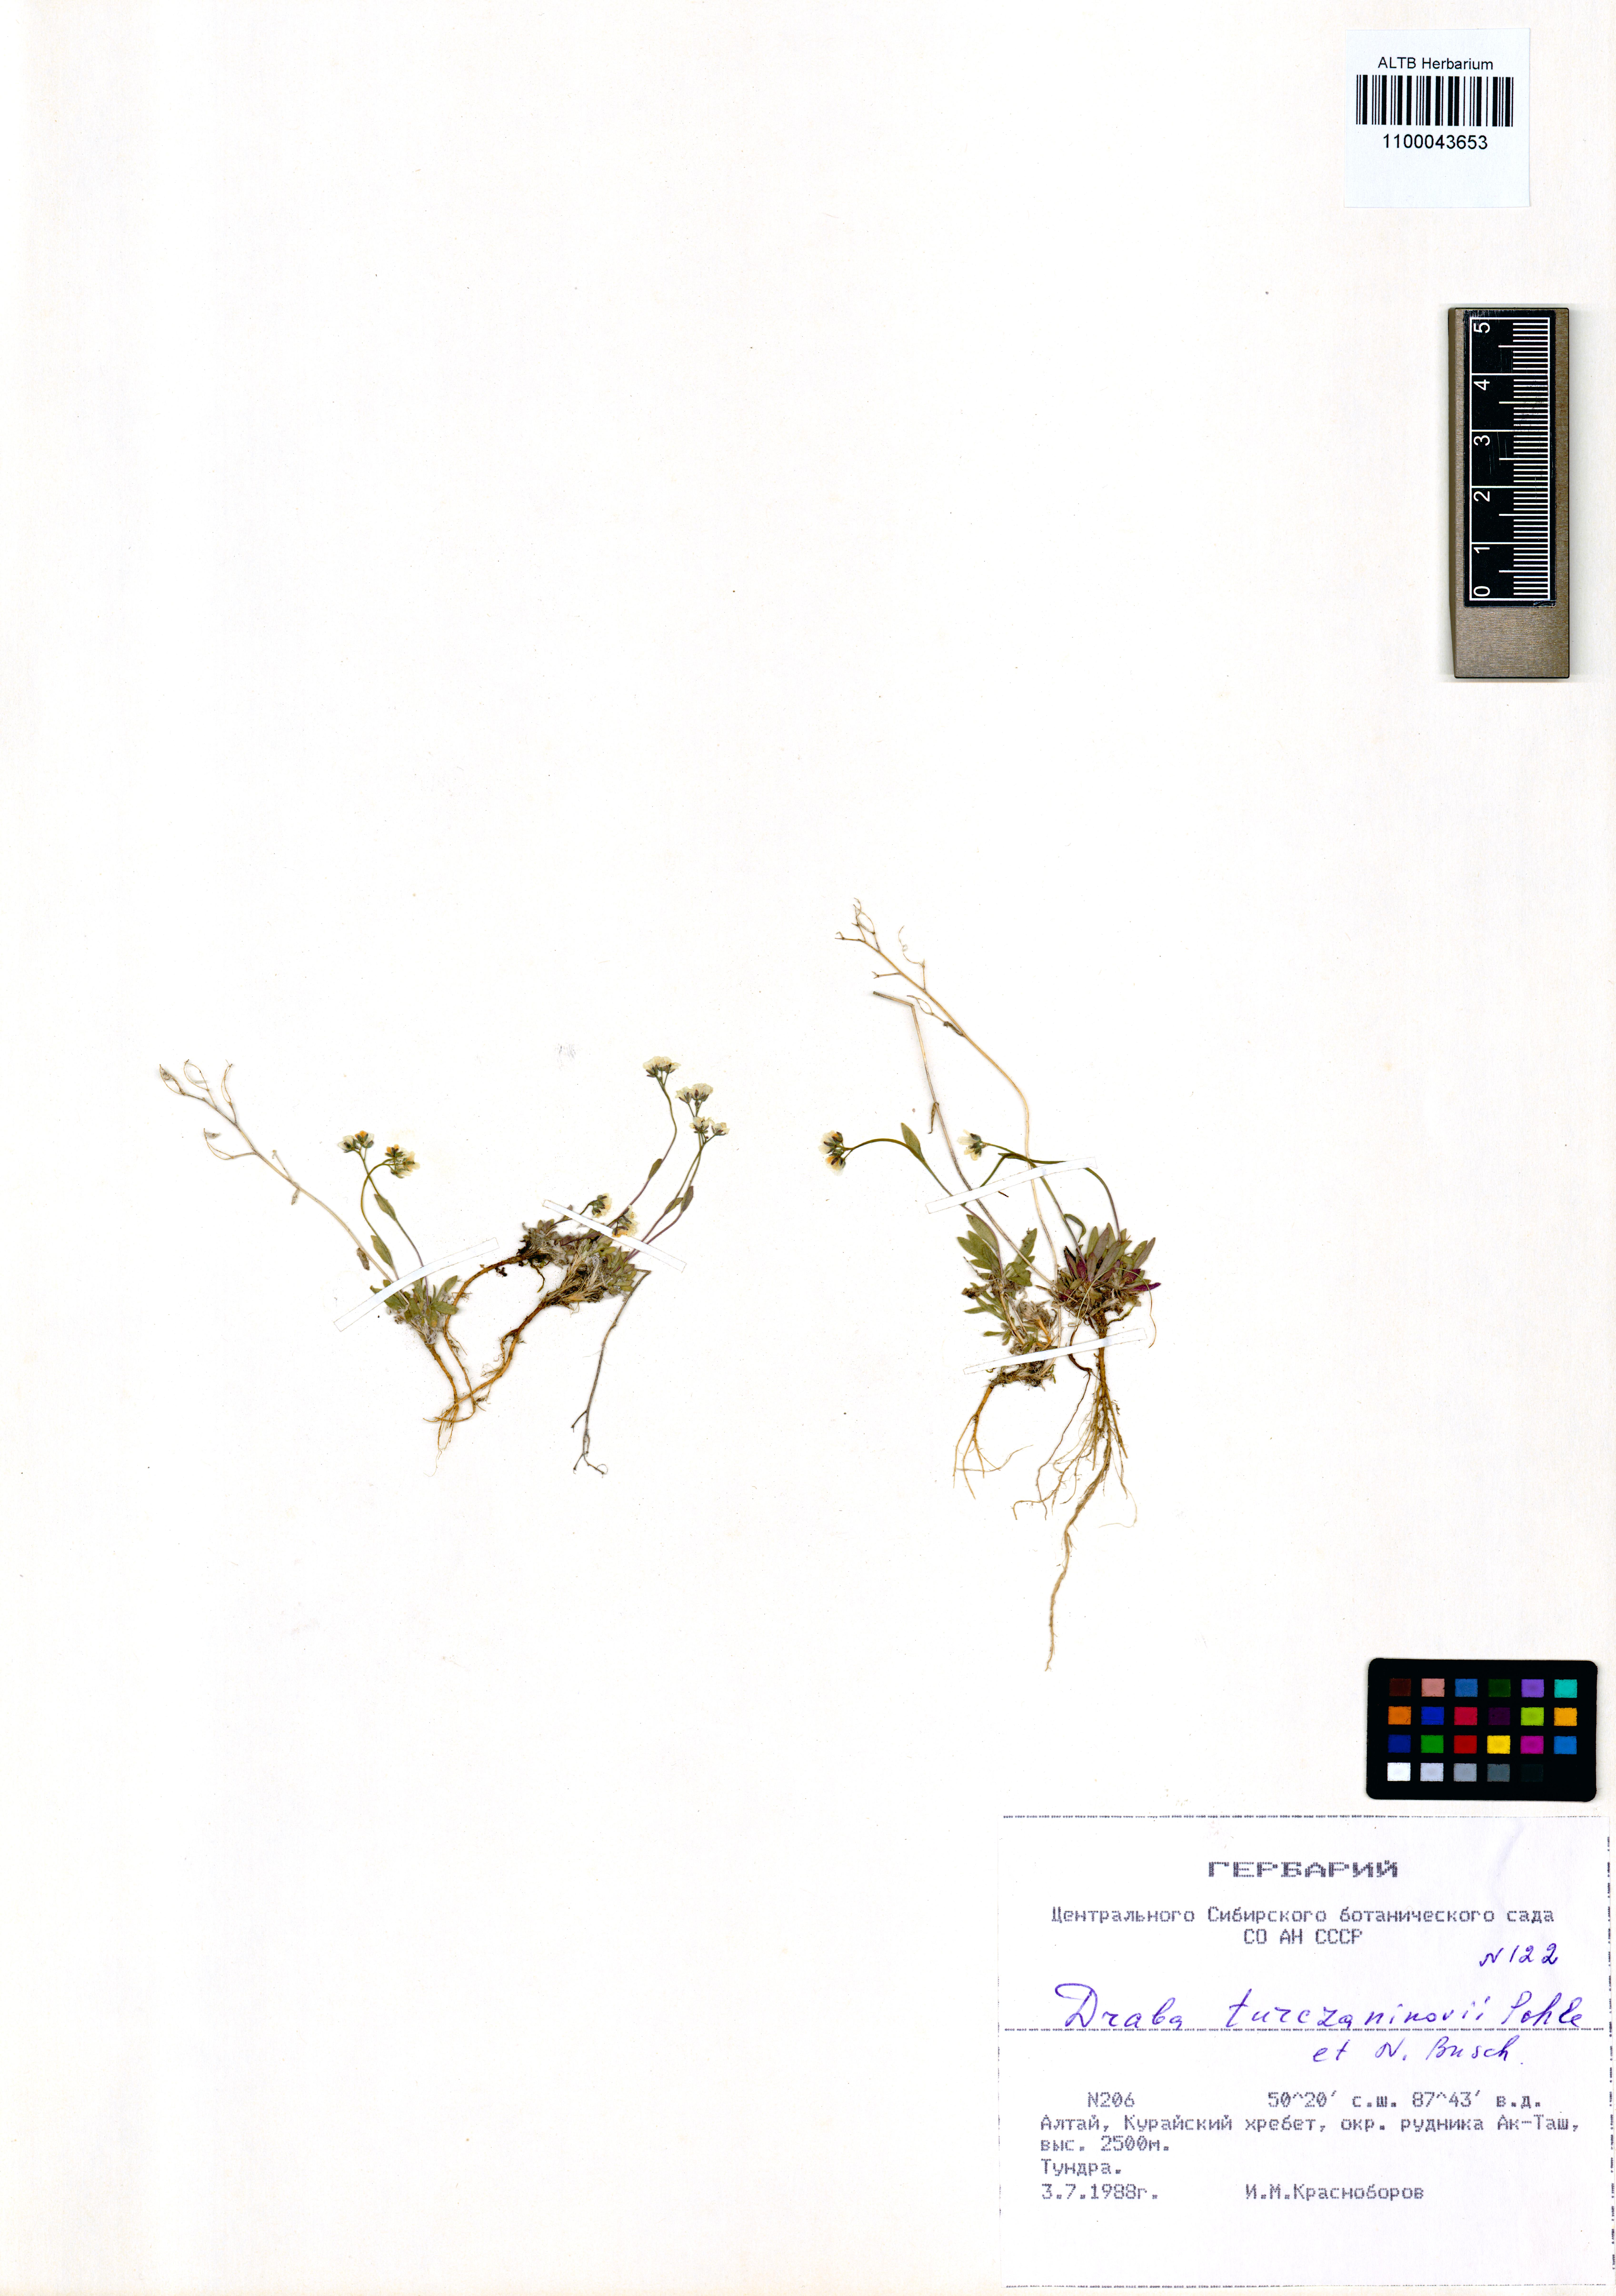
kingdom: Plantae
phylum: Tracheophyta
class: Magnoliopsida
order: Brassicales
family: Brassicaceae
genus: Draba
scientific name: Draba turczaninovii
